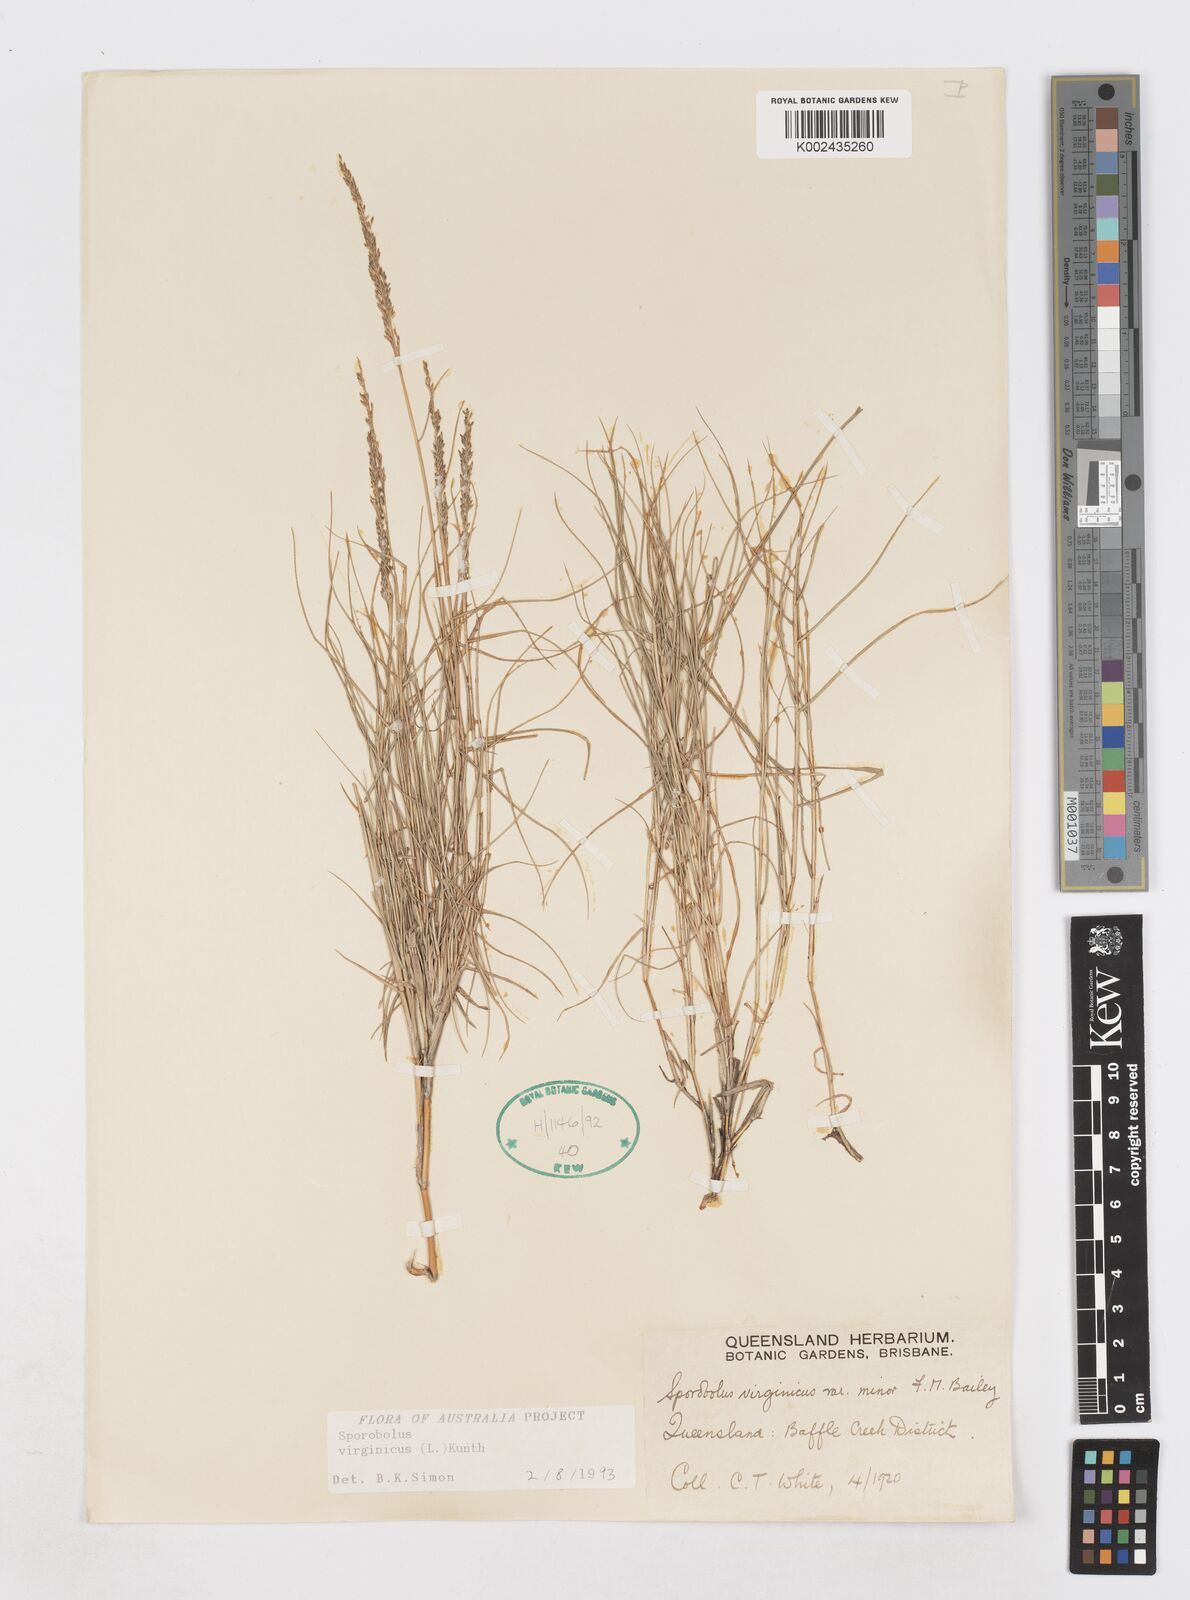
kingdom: Plantae
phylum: Tracheophyta
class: Liliopsida
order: Poales
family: Poaceae
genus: Sporobolus
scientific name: Sporobolus virginicus
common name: Beach dropseed
